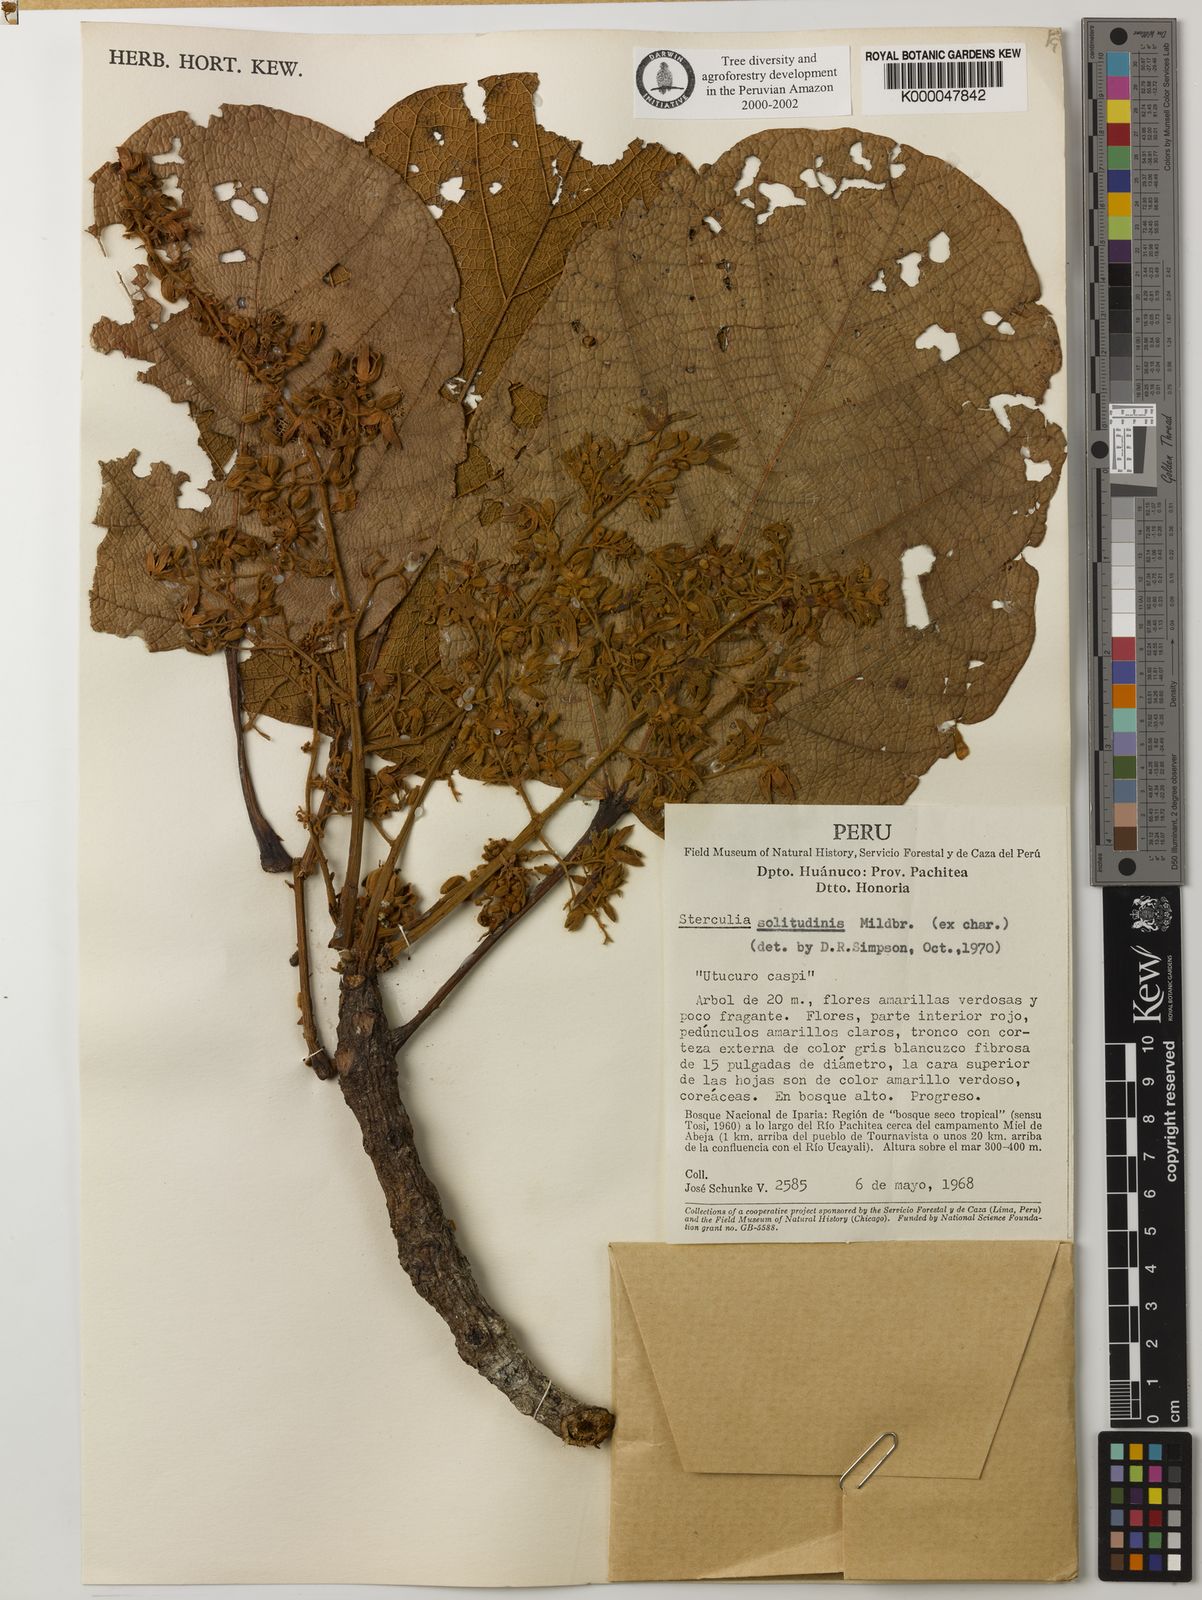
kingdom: Plantae
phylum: Tracheophyta
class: Magnoliopsida
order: Malvales
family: Malvaceae
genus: Sterculia
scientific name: Sterculia colombiana
